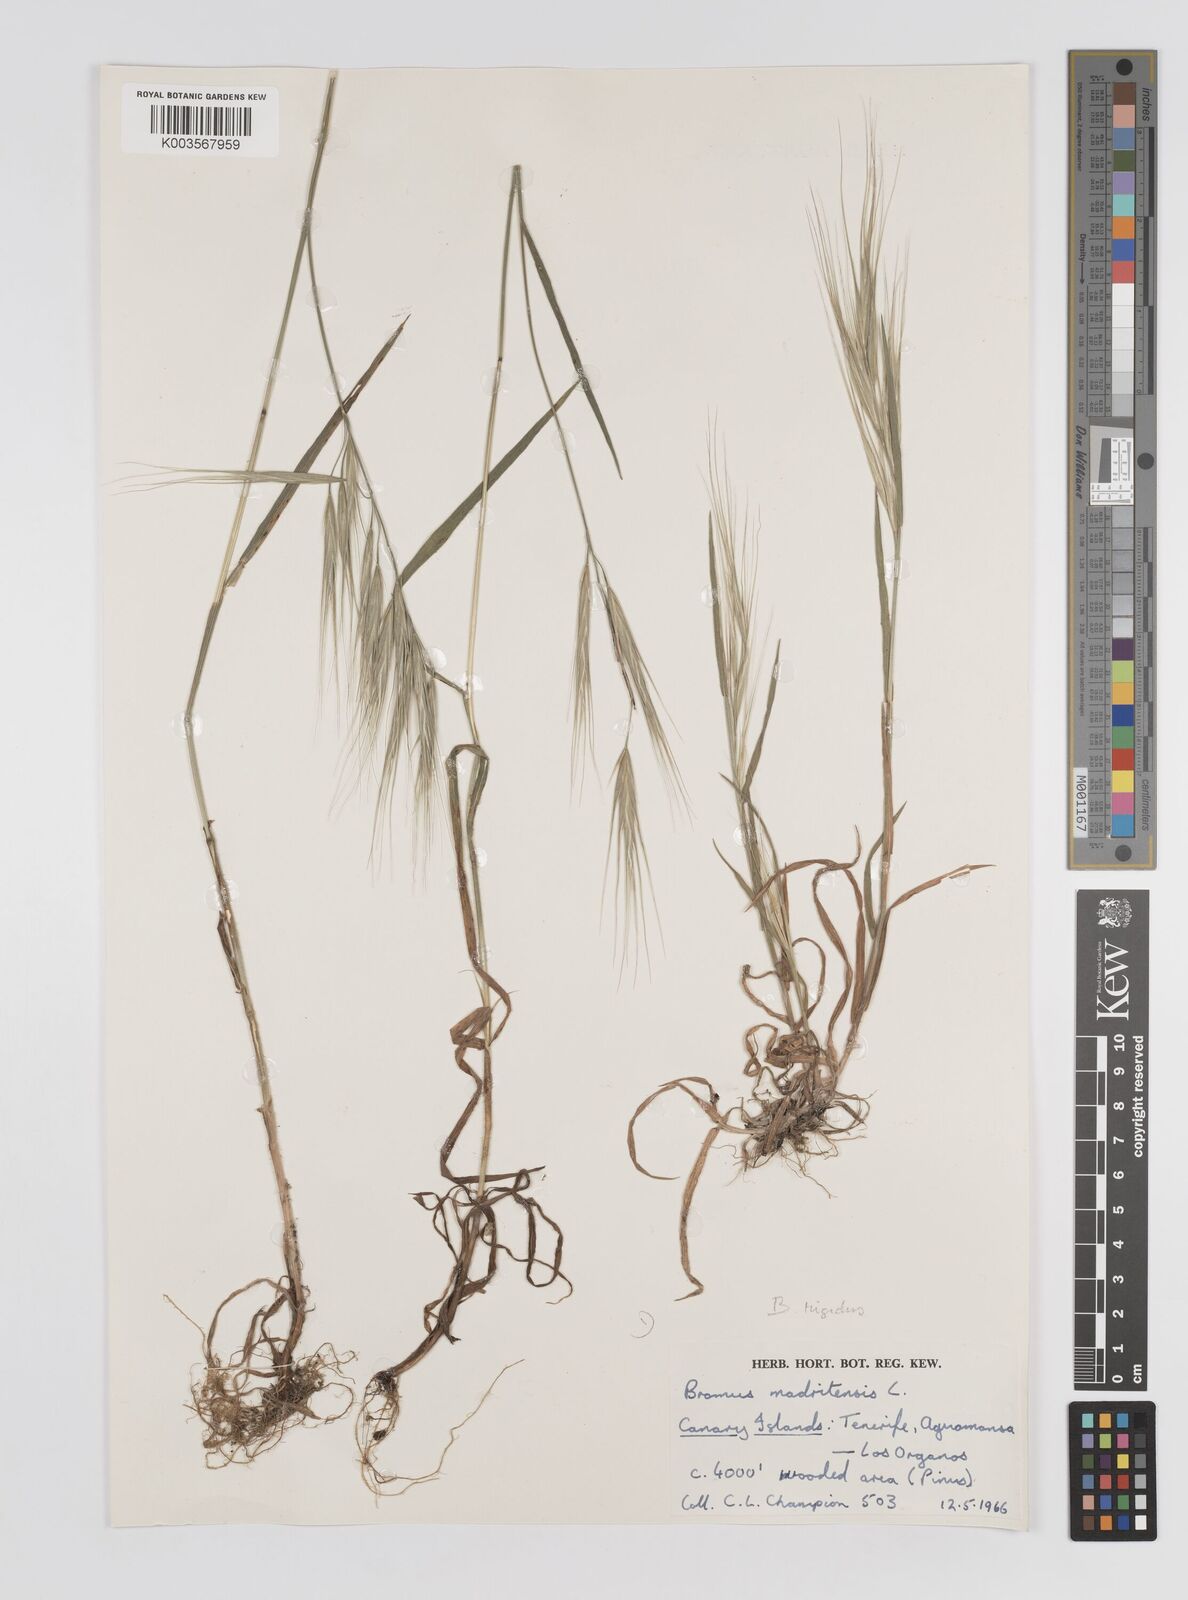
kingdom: Plantae
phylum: Tracheophyta
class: Liliopsida
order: Poales
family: Poaceae
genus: Bromus
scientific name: Bromus diandrus
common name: Ripgut brome
